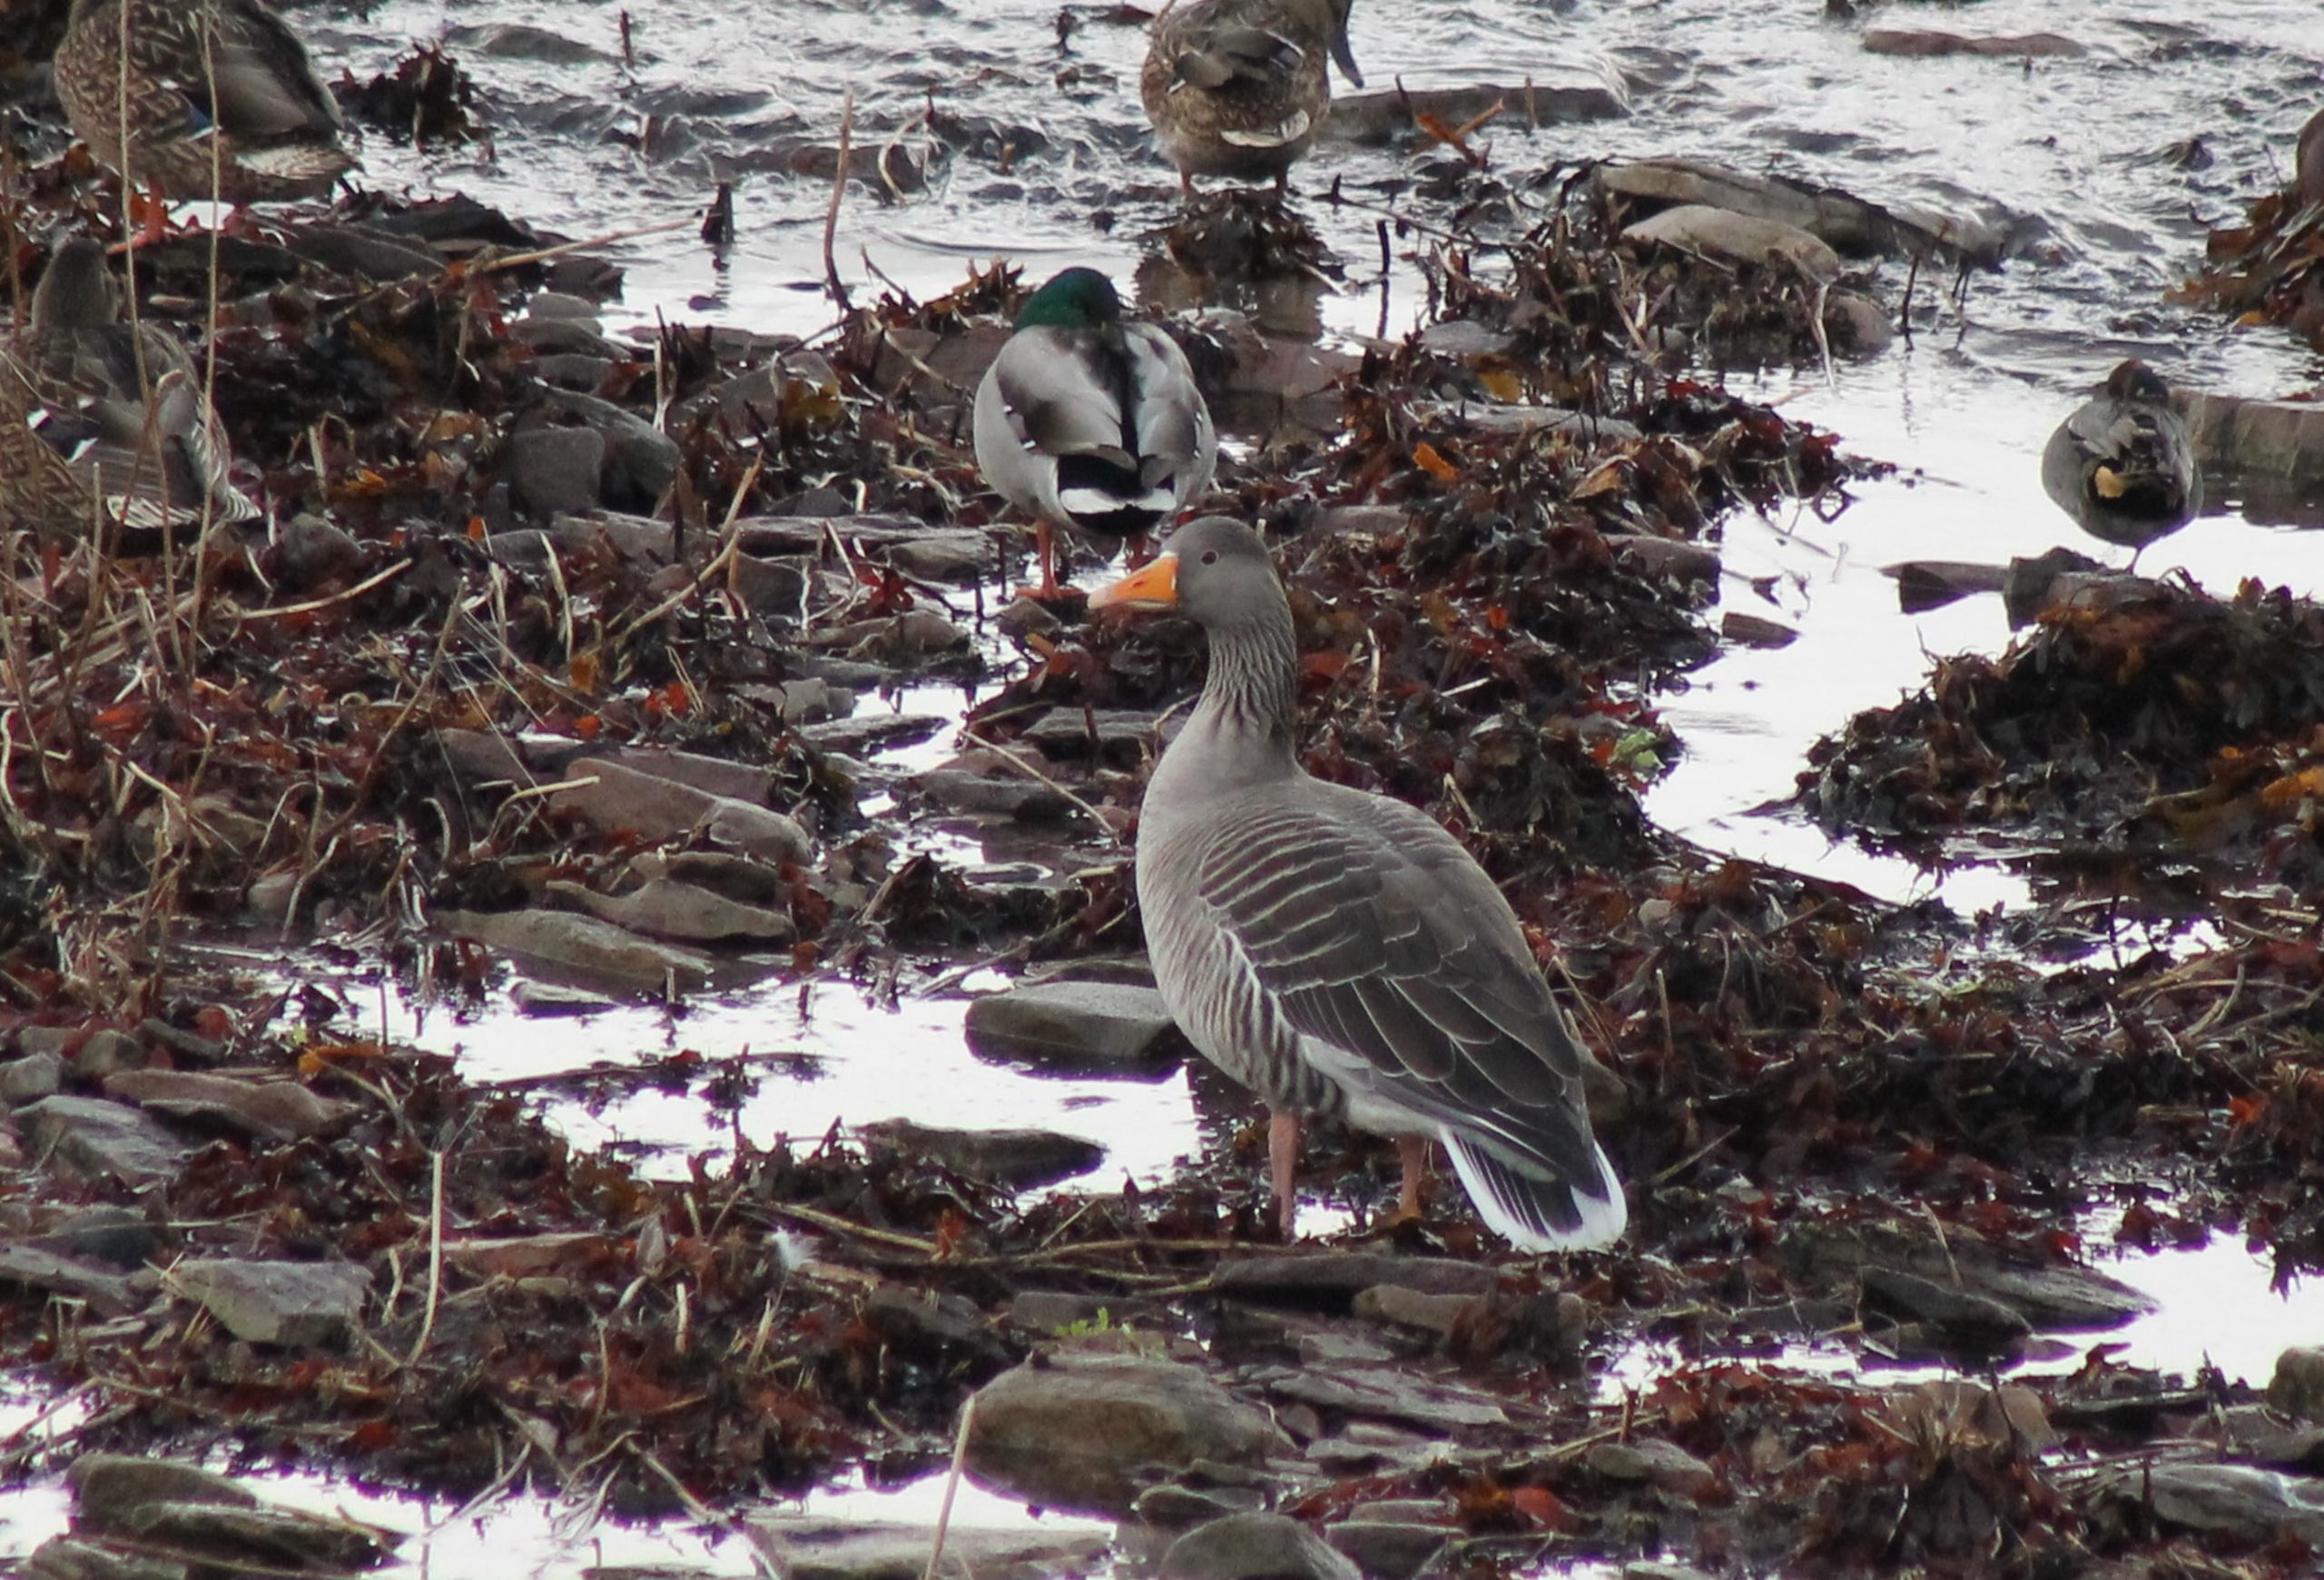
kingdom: Animalia
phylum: Chordata
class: Aves
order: Anseriformes
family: Anatidae
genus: Anser
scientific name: Anser anser
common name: Grågås
